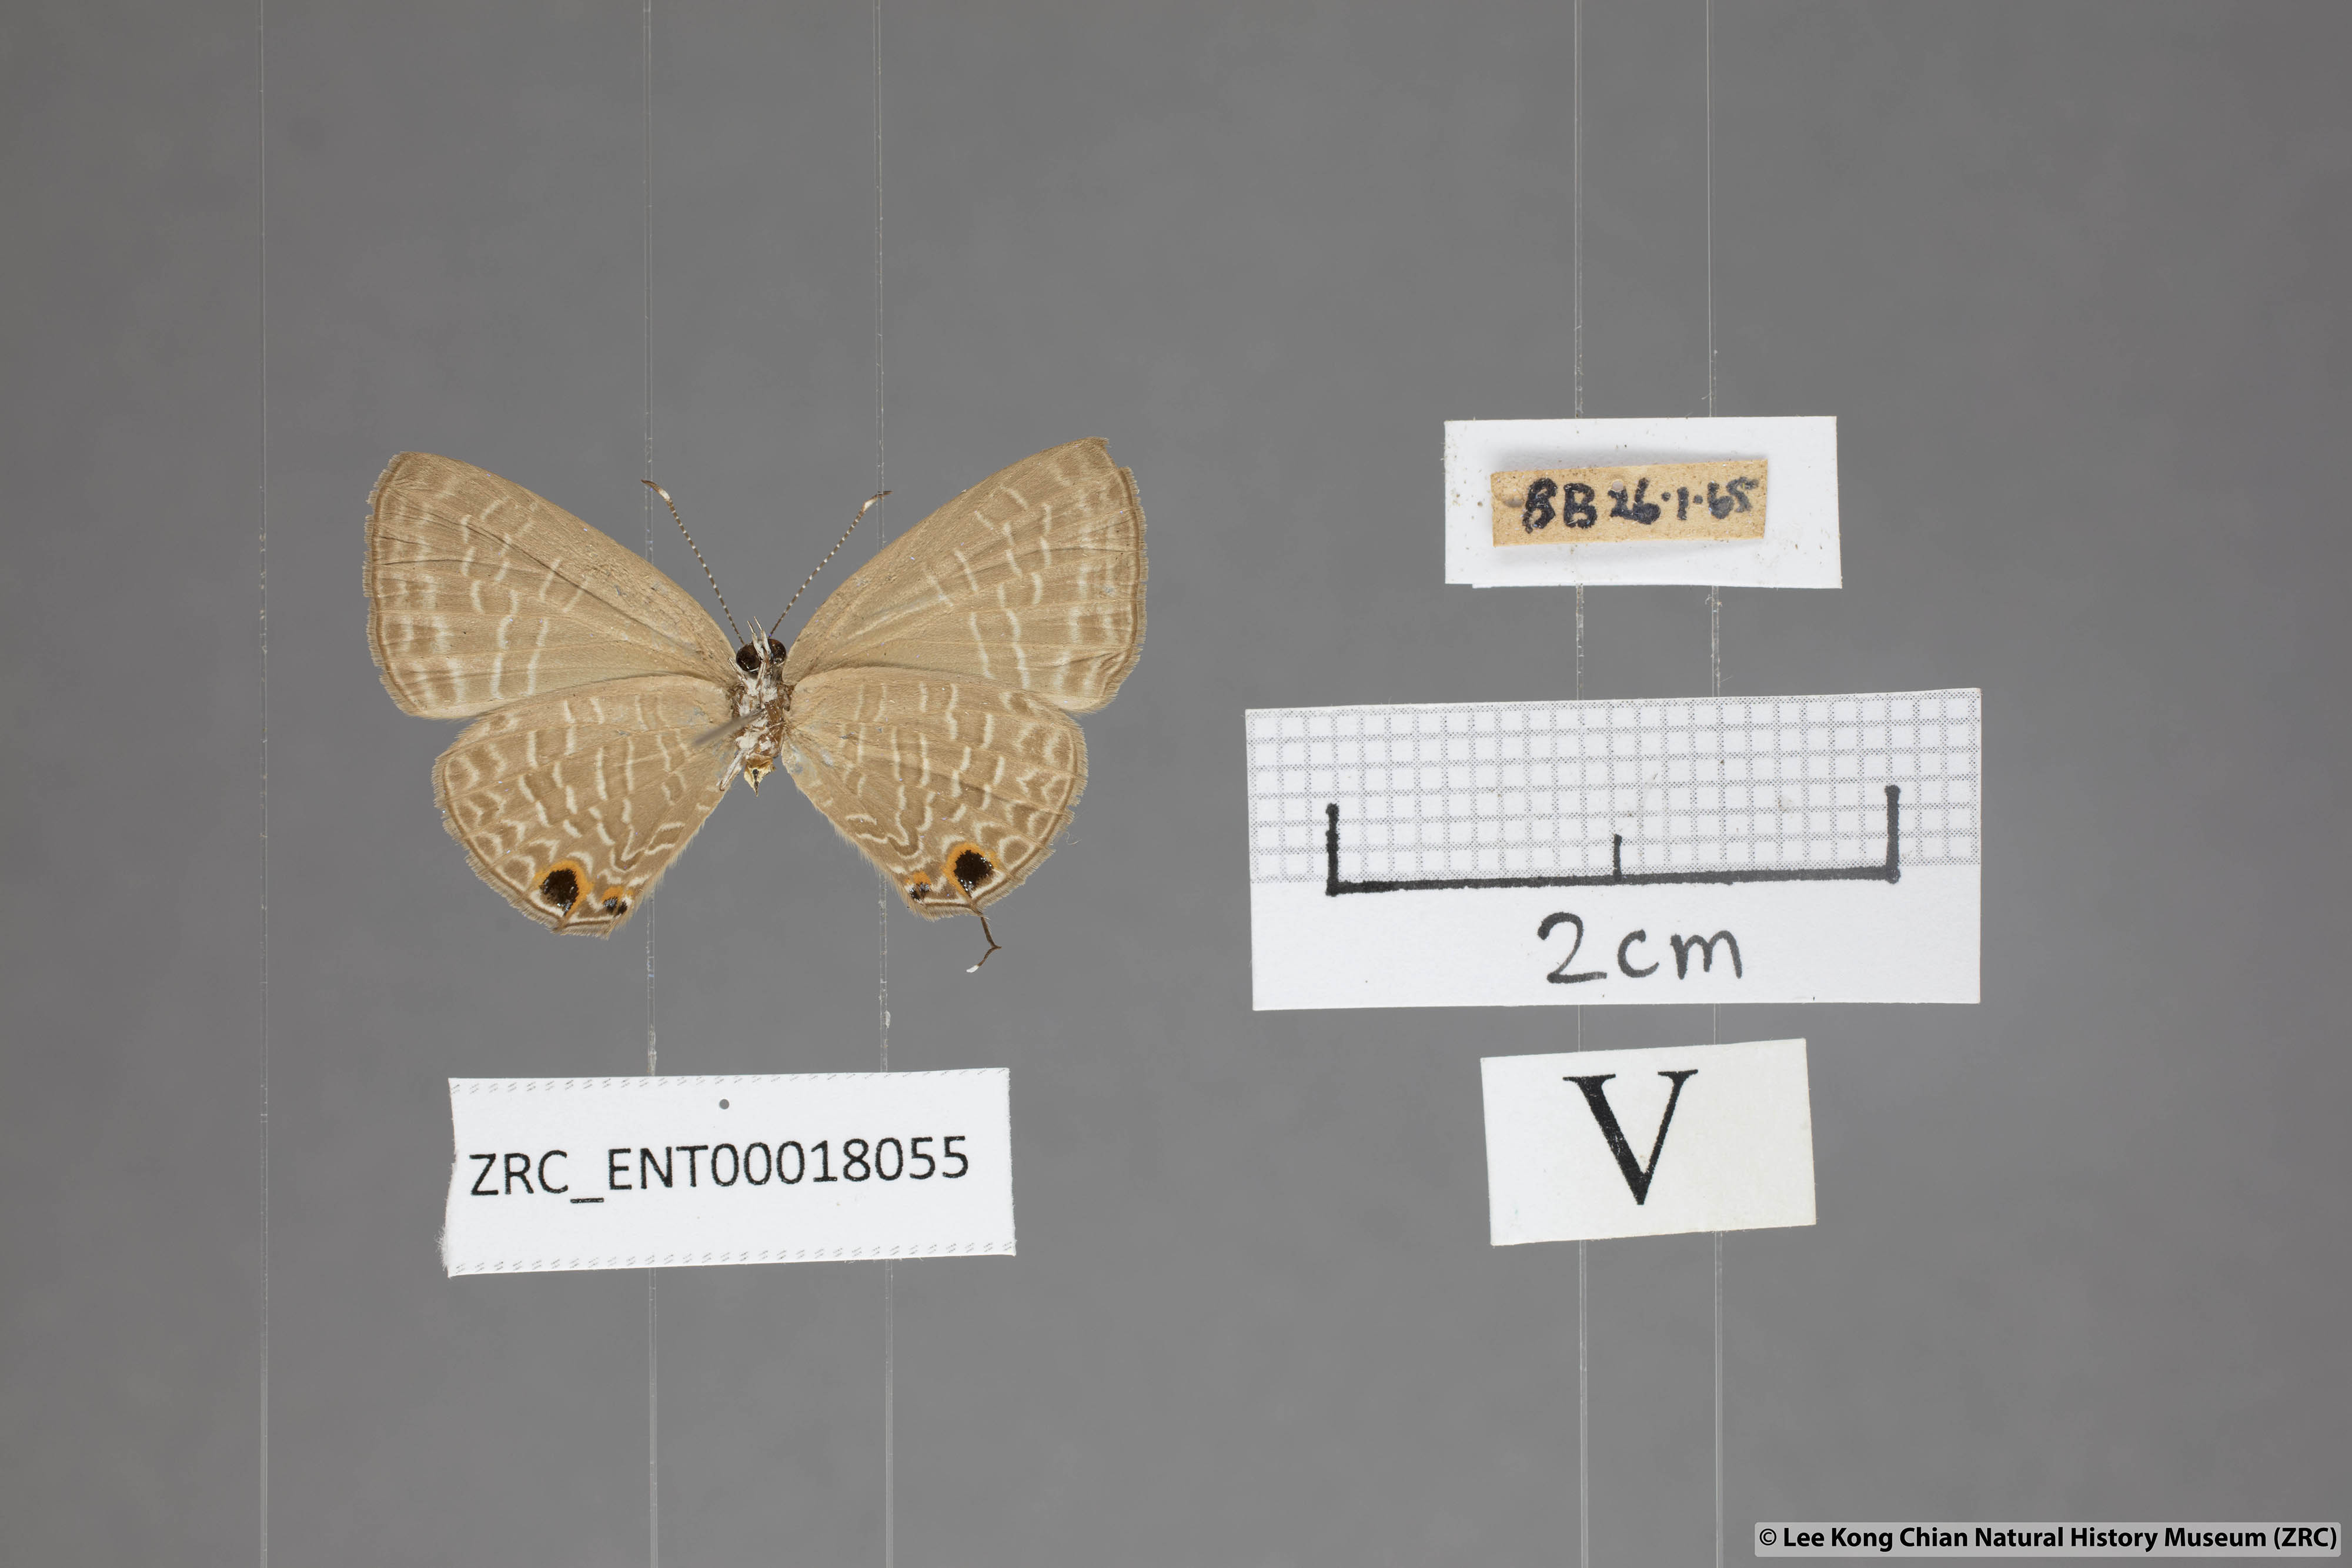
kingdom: Animalia
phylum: Arthropoda
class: Insecta
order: Lepidoptera
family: Lycaenidae
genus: Jamides
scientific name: Jamides bochus
